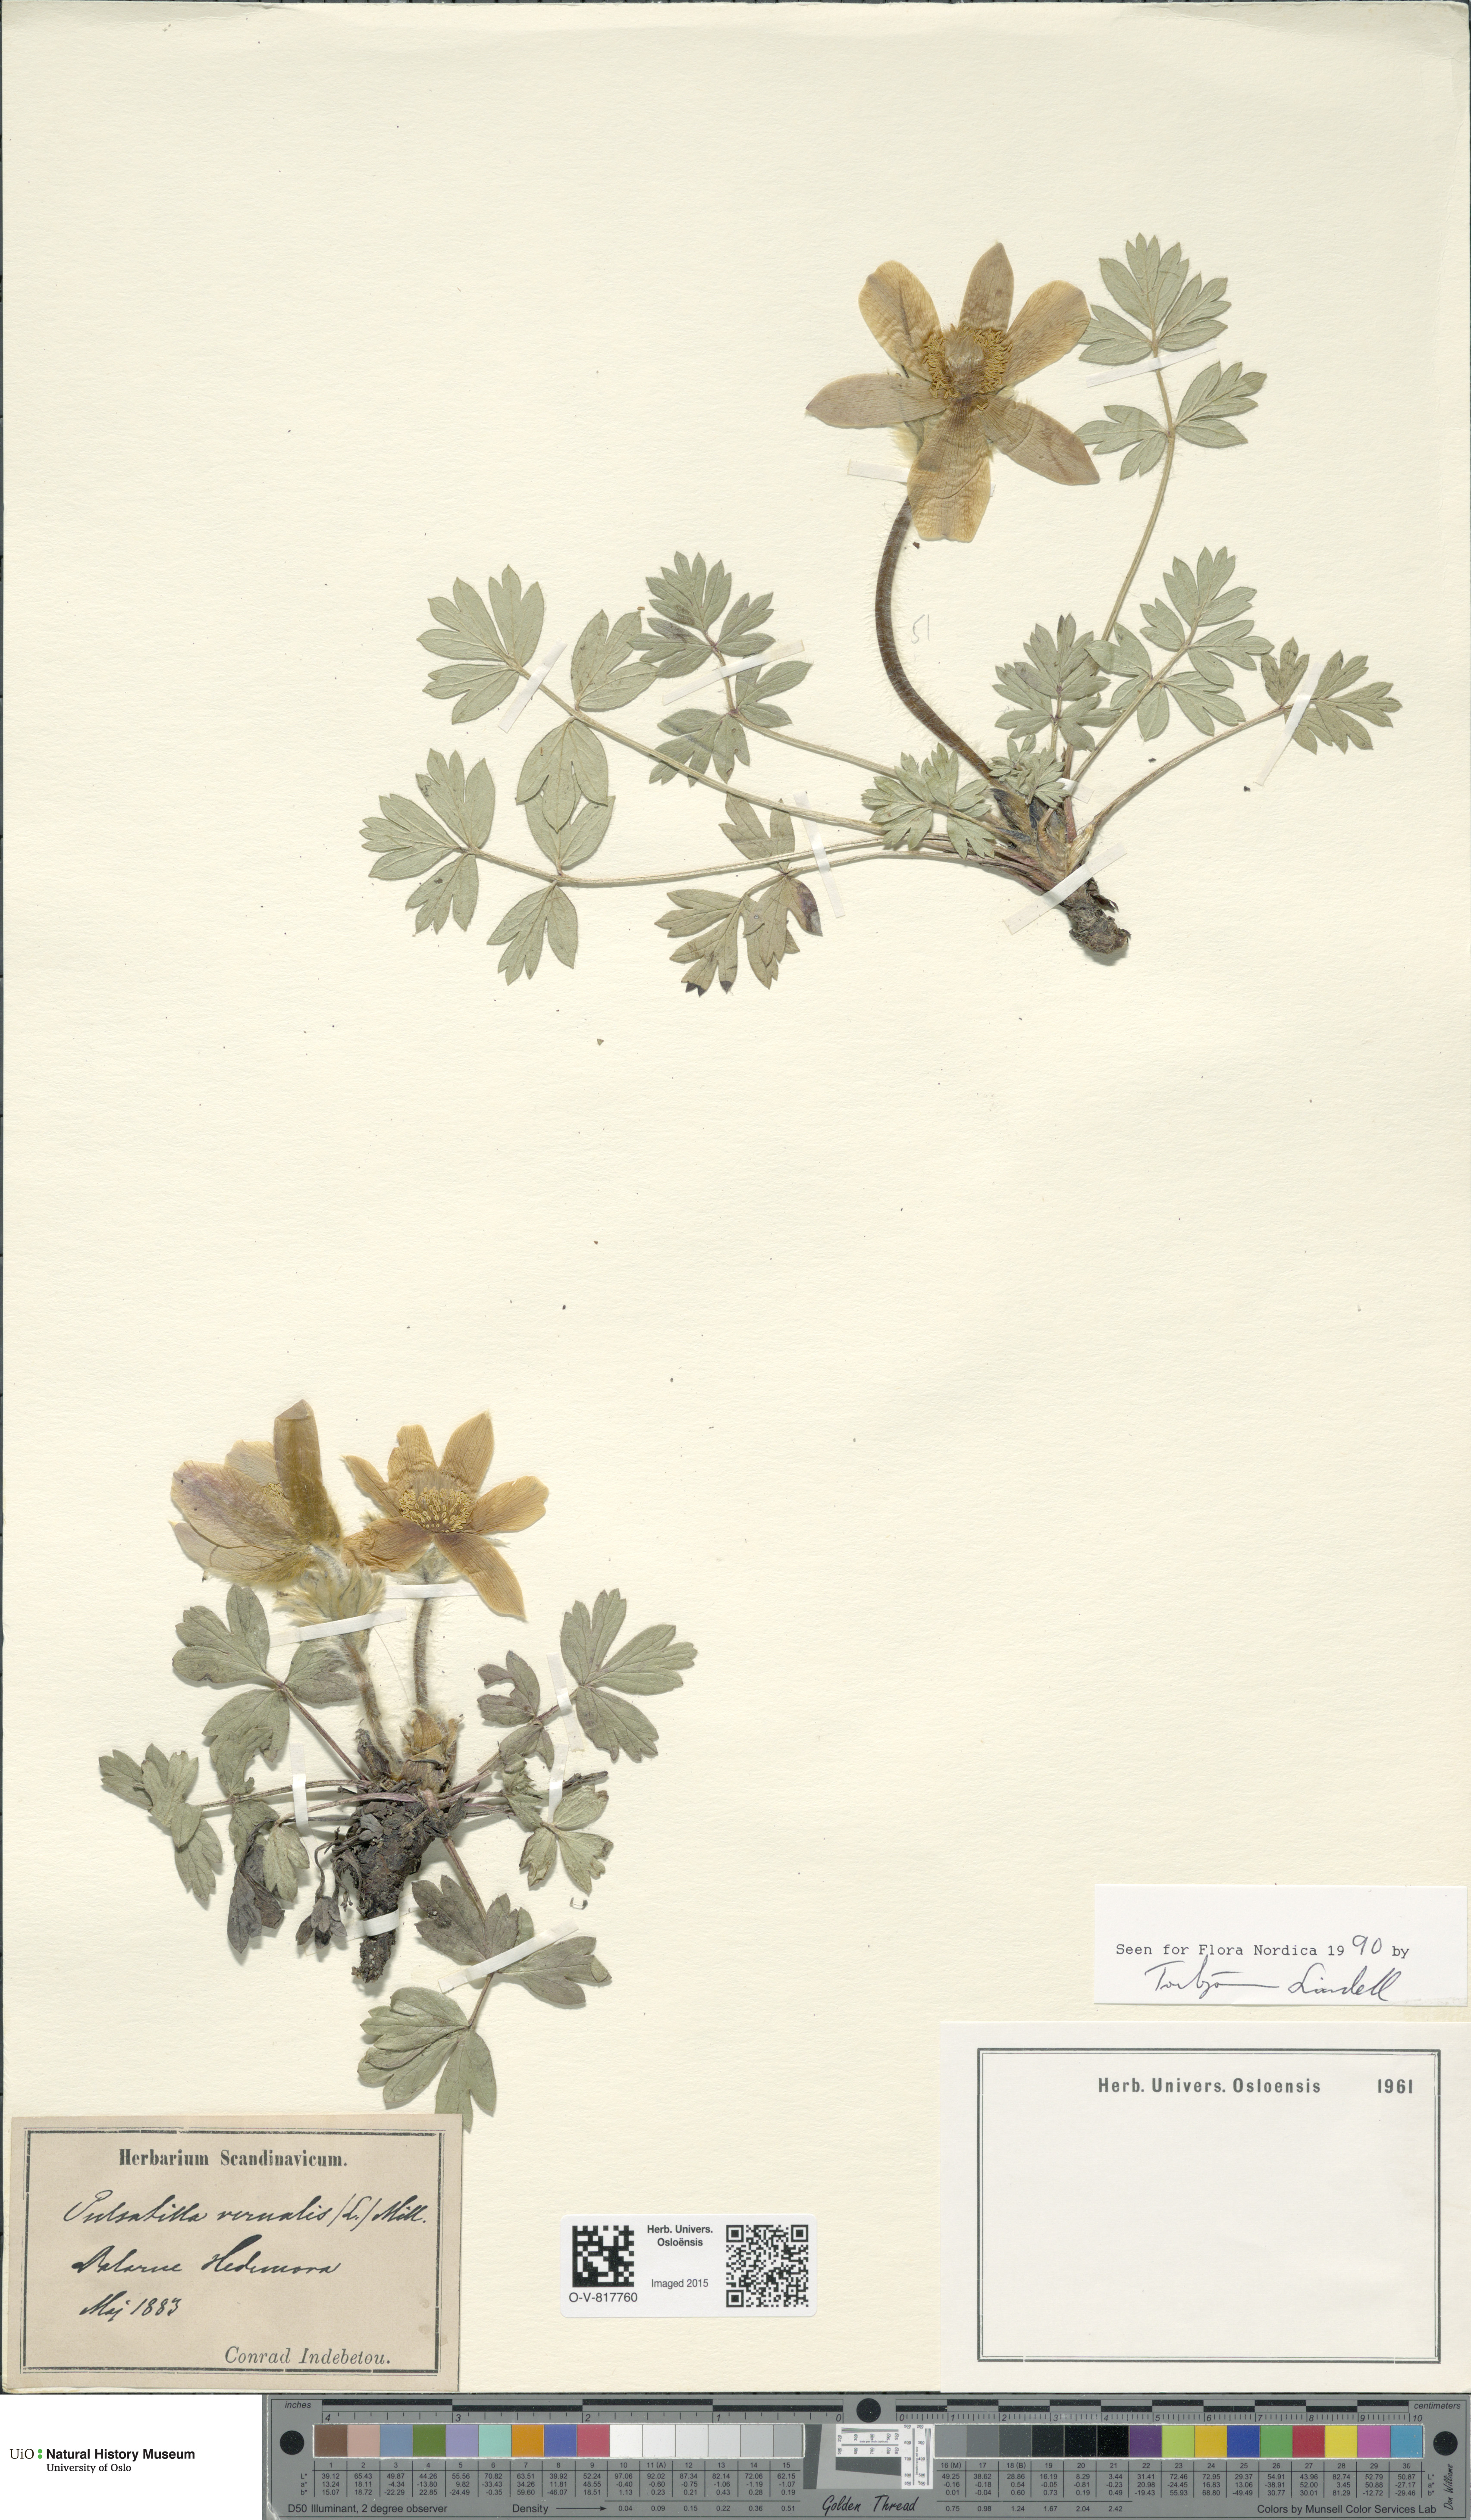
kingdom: Plantae
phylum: Tracheophyta
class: Magnoliopsida
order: Ranunculales
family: Ranunculaceae
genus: Pulsatilla
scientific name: Pulsatilla vernalis
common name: Spring pasque flower
